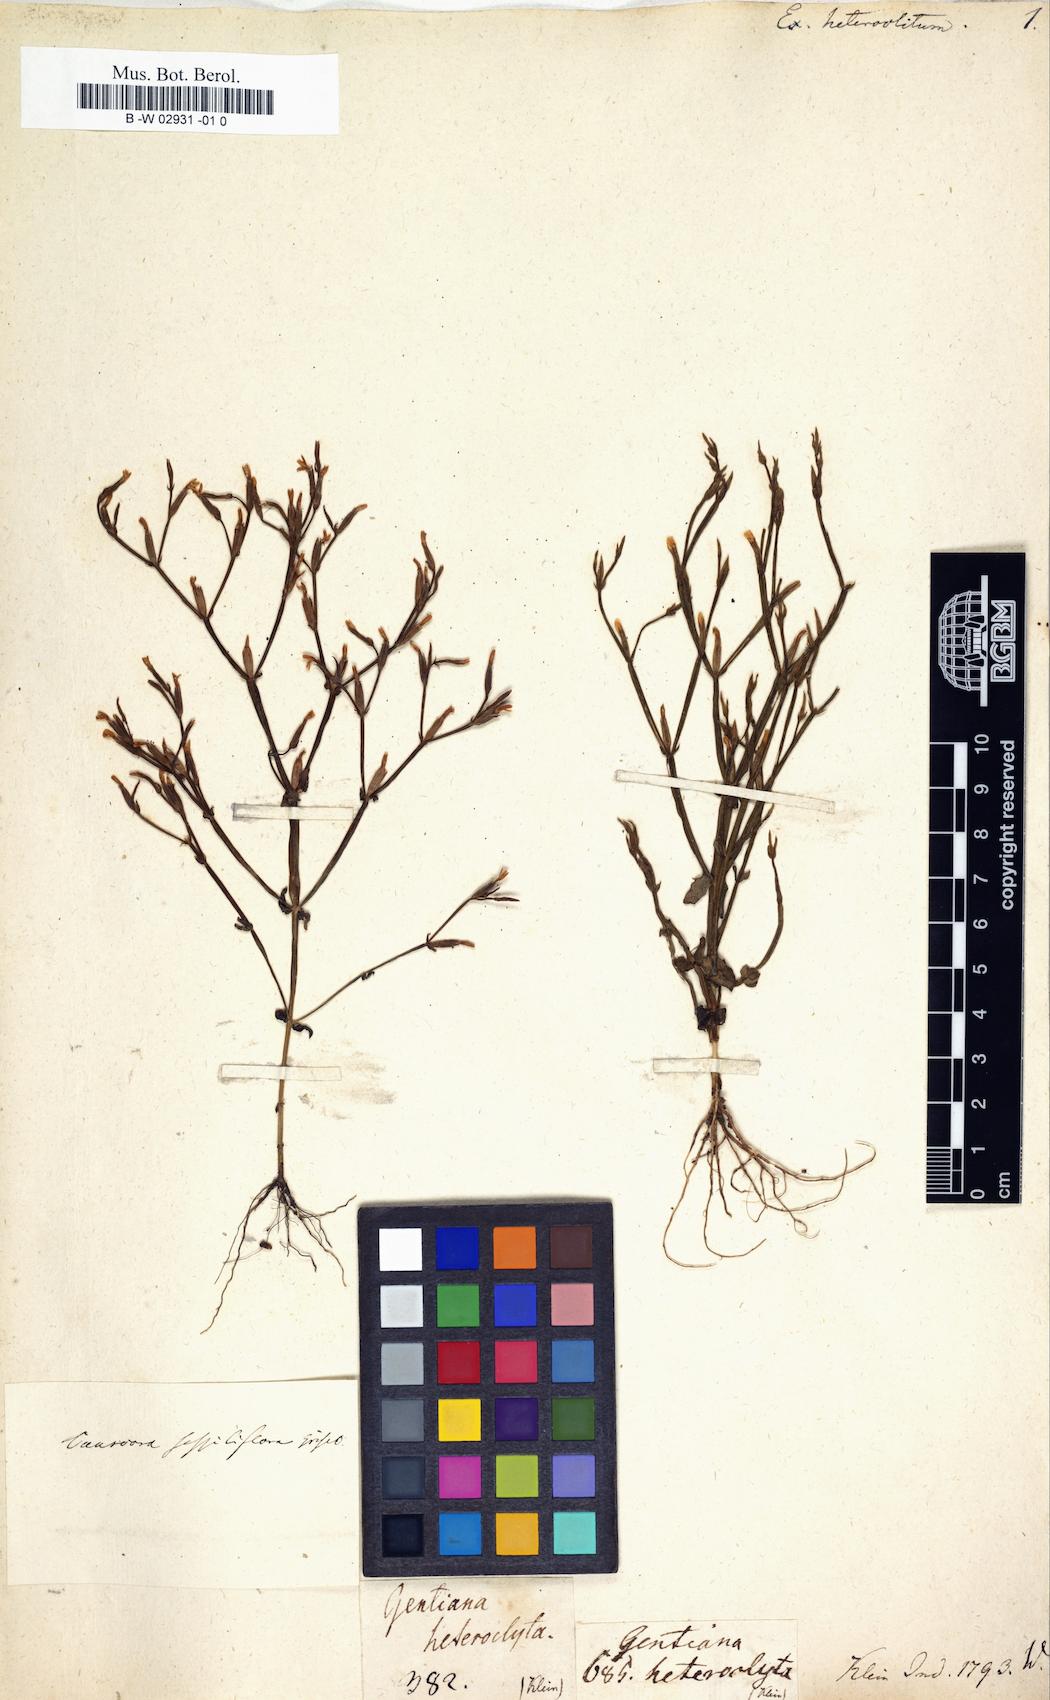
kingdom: Plantae
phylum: Tracheophyta
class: Magnoliopsida
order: Gentianales
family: Gentianaceae
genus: Canscora
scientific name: Canscora heteroclita
